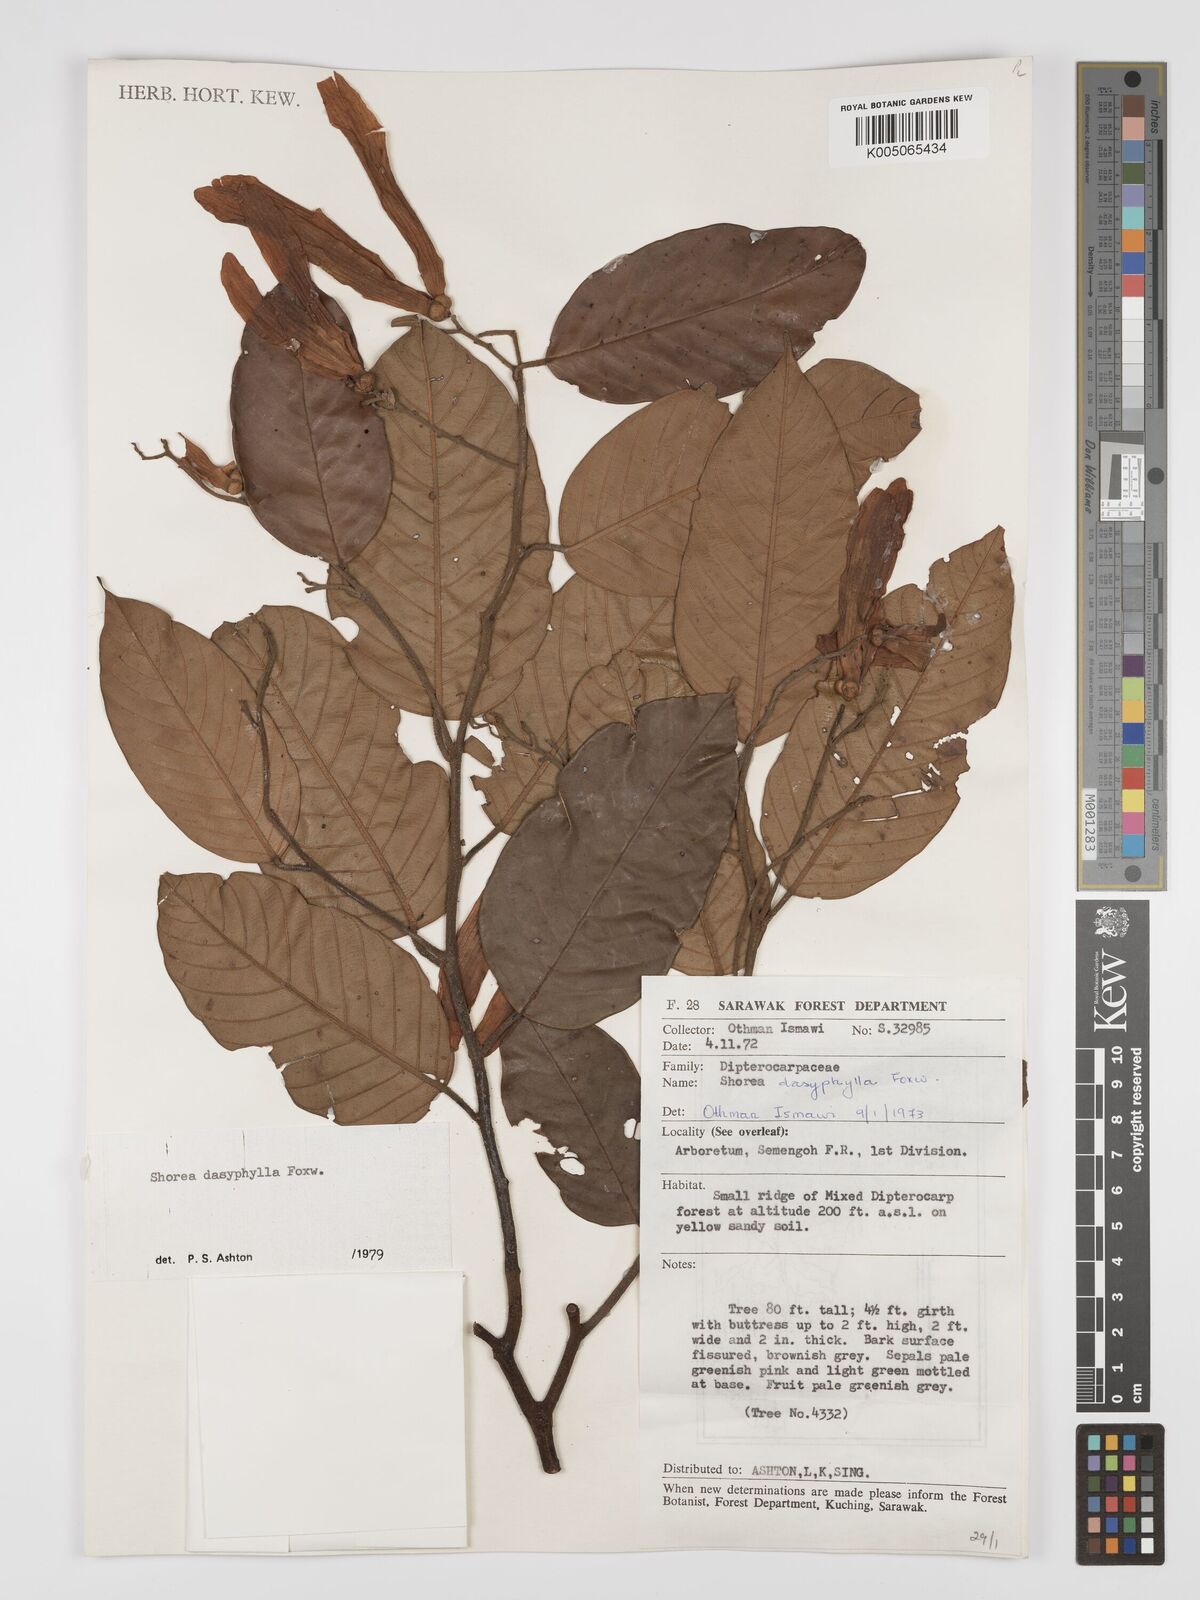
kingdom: Plantae
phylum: Tracheophyta
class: Magnoliopsida
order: Malvales
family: Dipterocarpaceae
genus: Shorea
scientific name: Shorea dasyphylla
